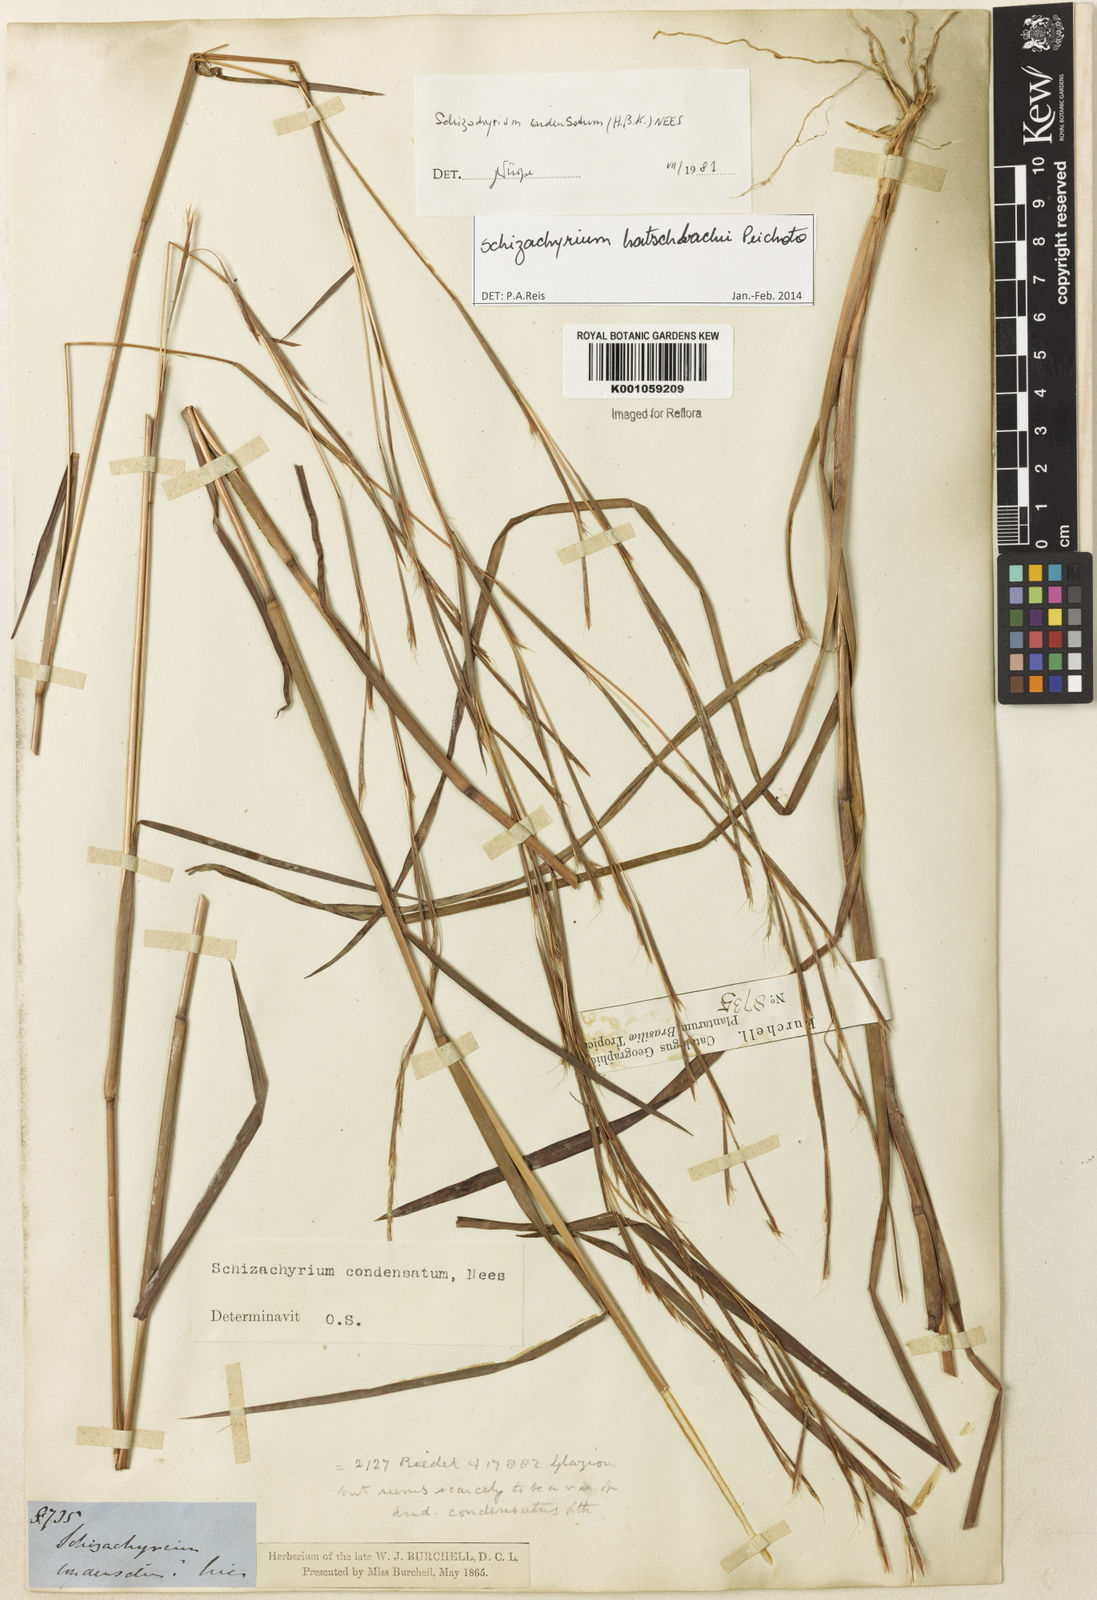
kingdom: Plantae
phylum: Tracheophyta
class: Liliopsida
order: Poales
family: Poaceae
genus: Schizachyrium
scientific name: Schizachyrium hatschbachii
